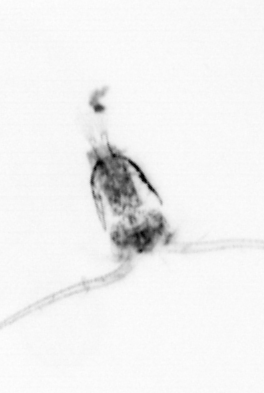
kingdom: Animalia
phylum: Arthropoda
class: Copepoda
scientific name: Copepoda
